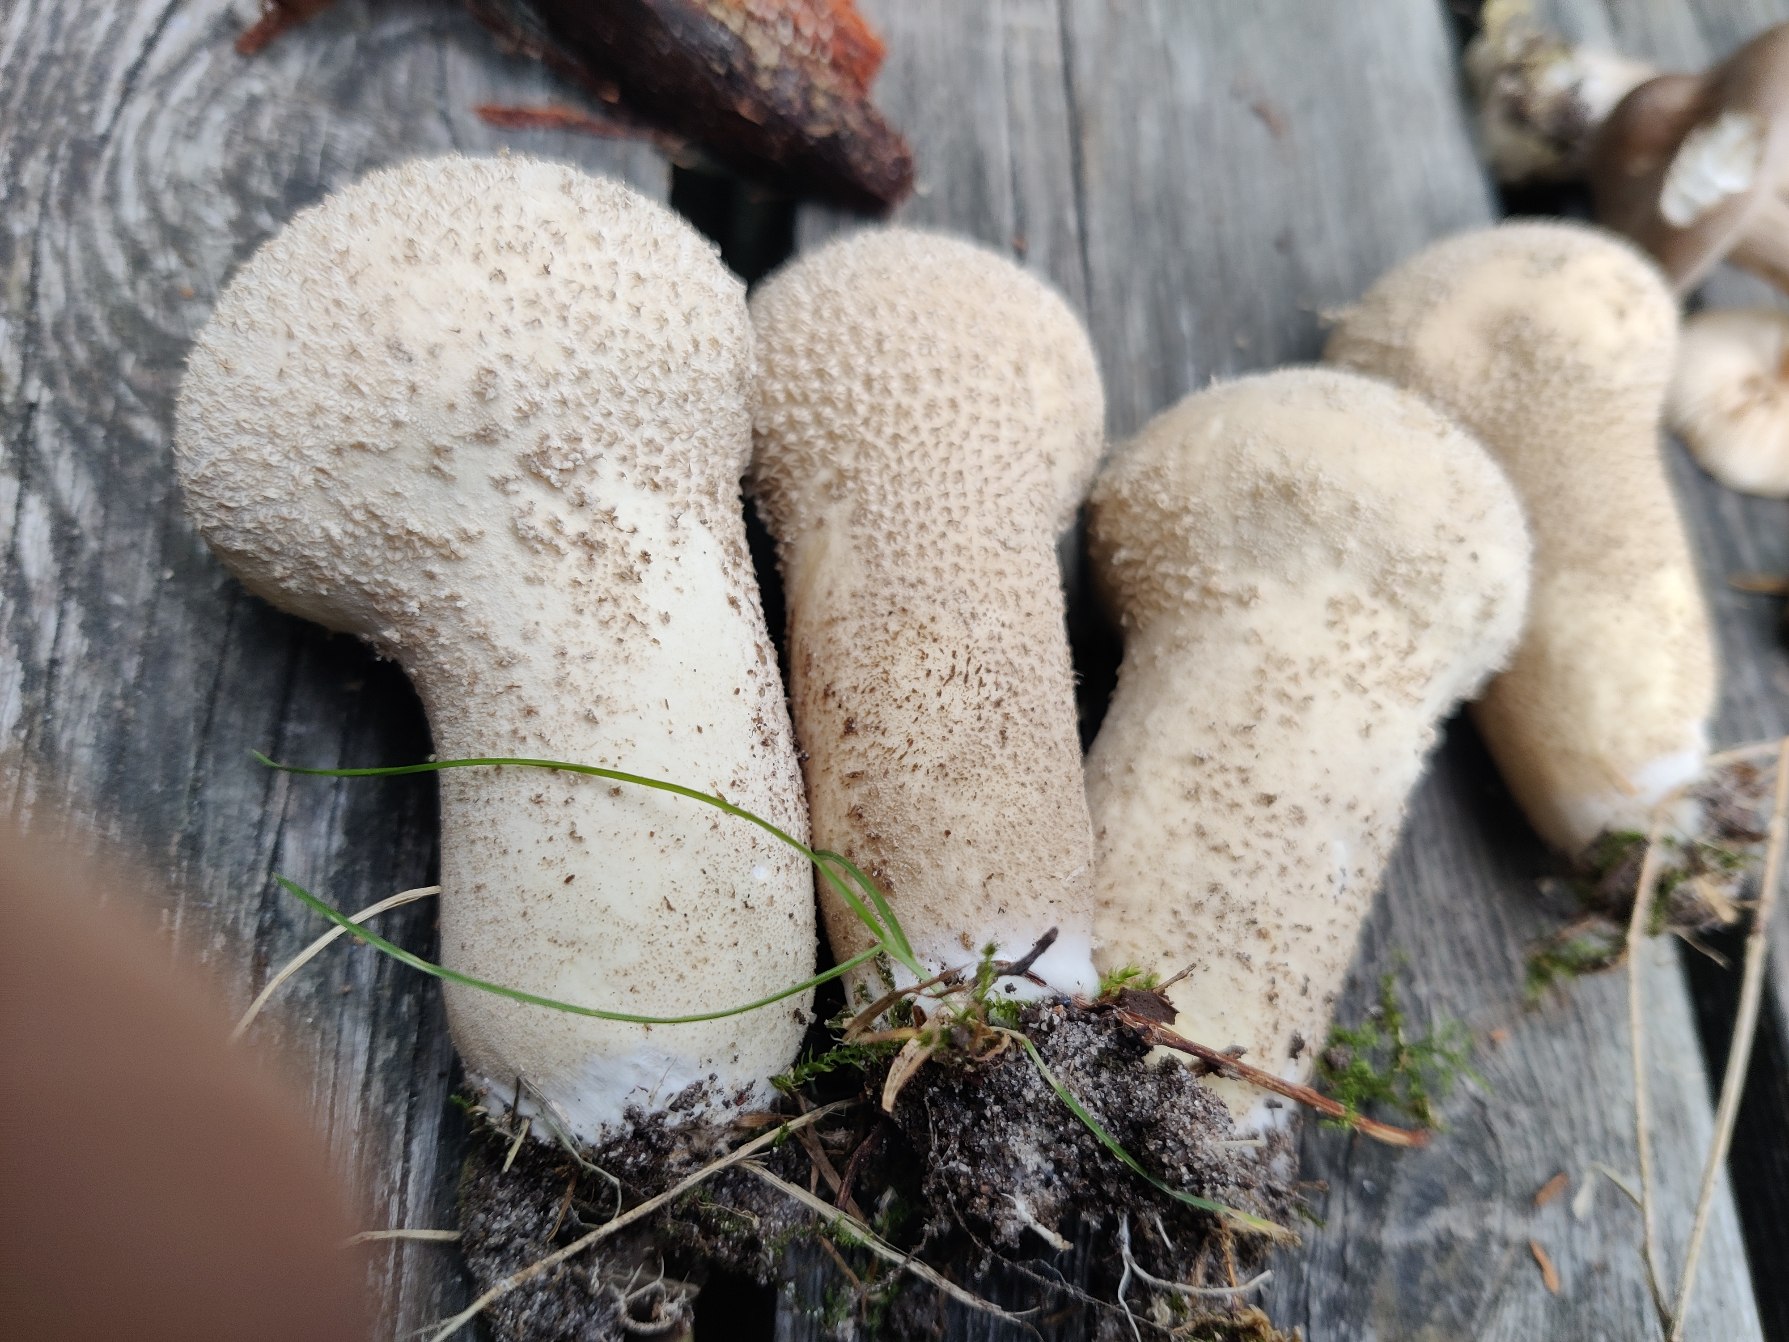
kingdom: Fungi
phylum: Basidiomycota
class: Agaricomycetes
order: Agaricales
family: Lycoperdaceae
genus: Lycoperdon
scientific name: Lycoperdon excipuliforme
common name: Højstokket støvbold
